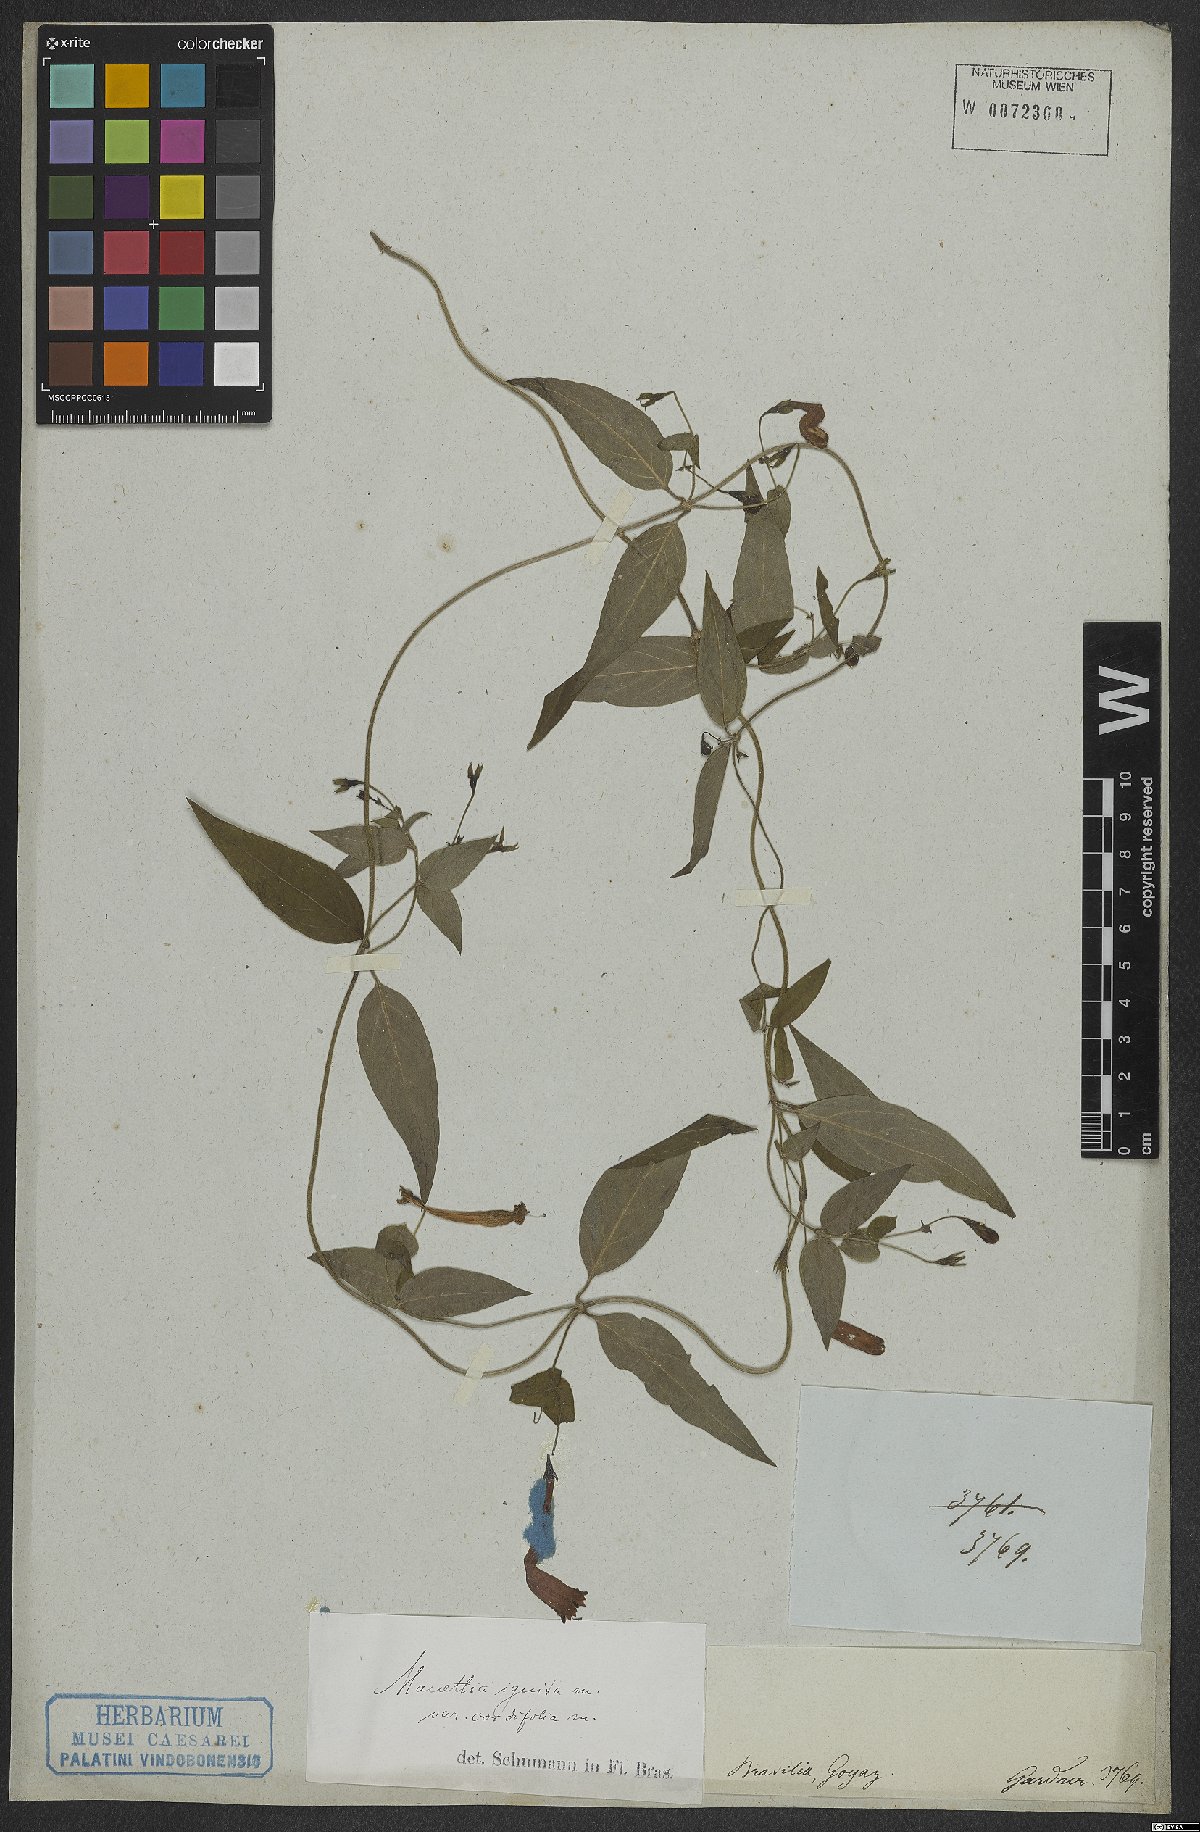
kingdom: Plantae
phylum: Tracheophyta
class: Magnoliopsida
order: Gentianales
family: Rubiaceae
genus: Manettia
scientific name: Manettia cordifolia
